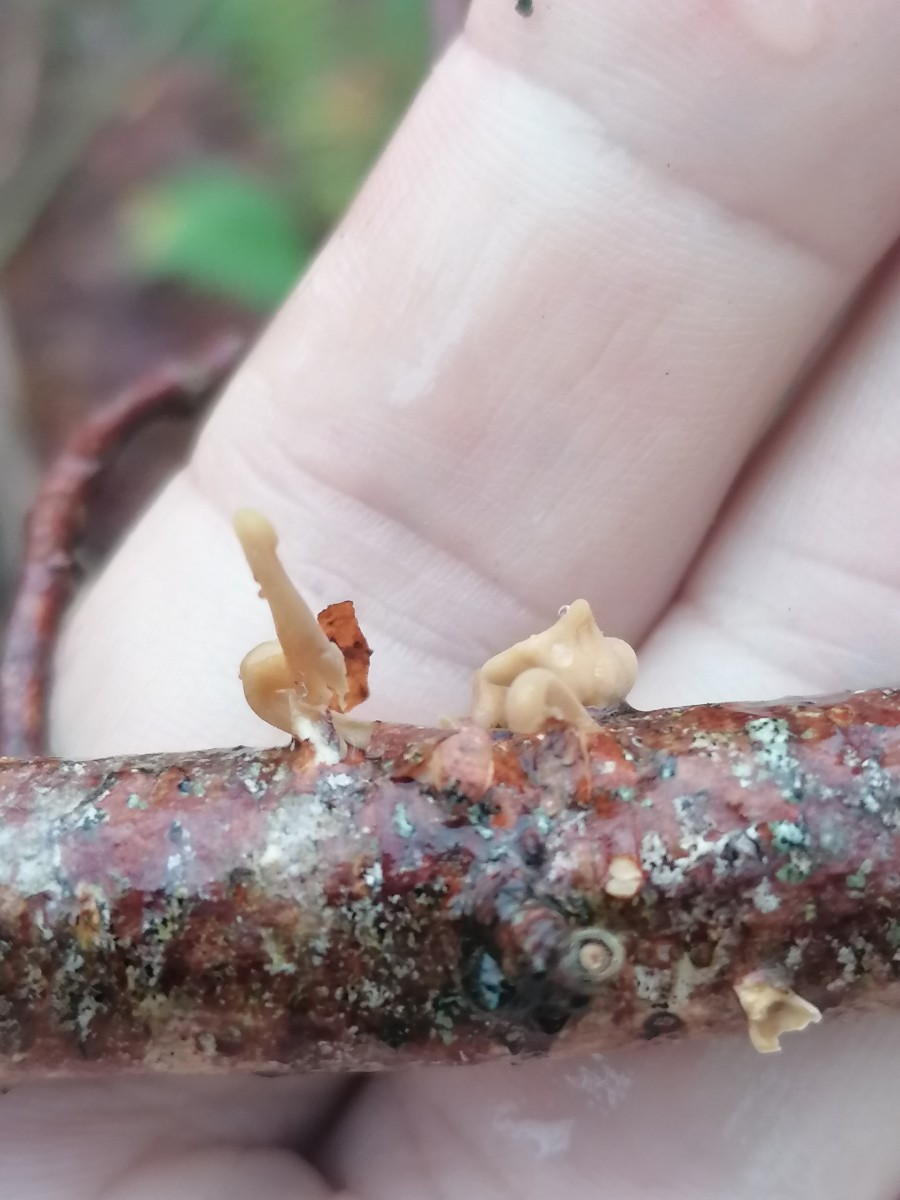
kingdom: Fungi
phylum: Basidiomycota
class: Agaricomycetes
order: Agaricales
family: Typhulaceae
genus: Typhula
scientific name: Typhula contorta
